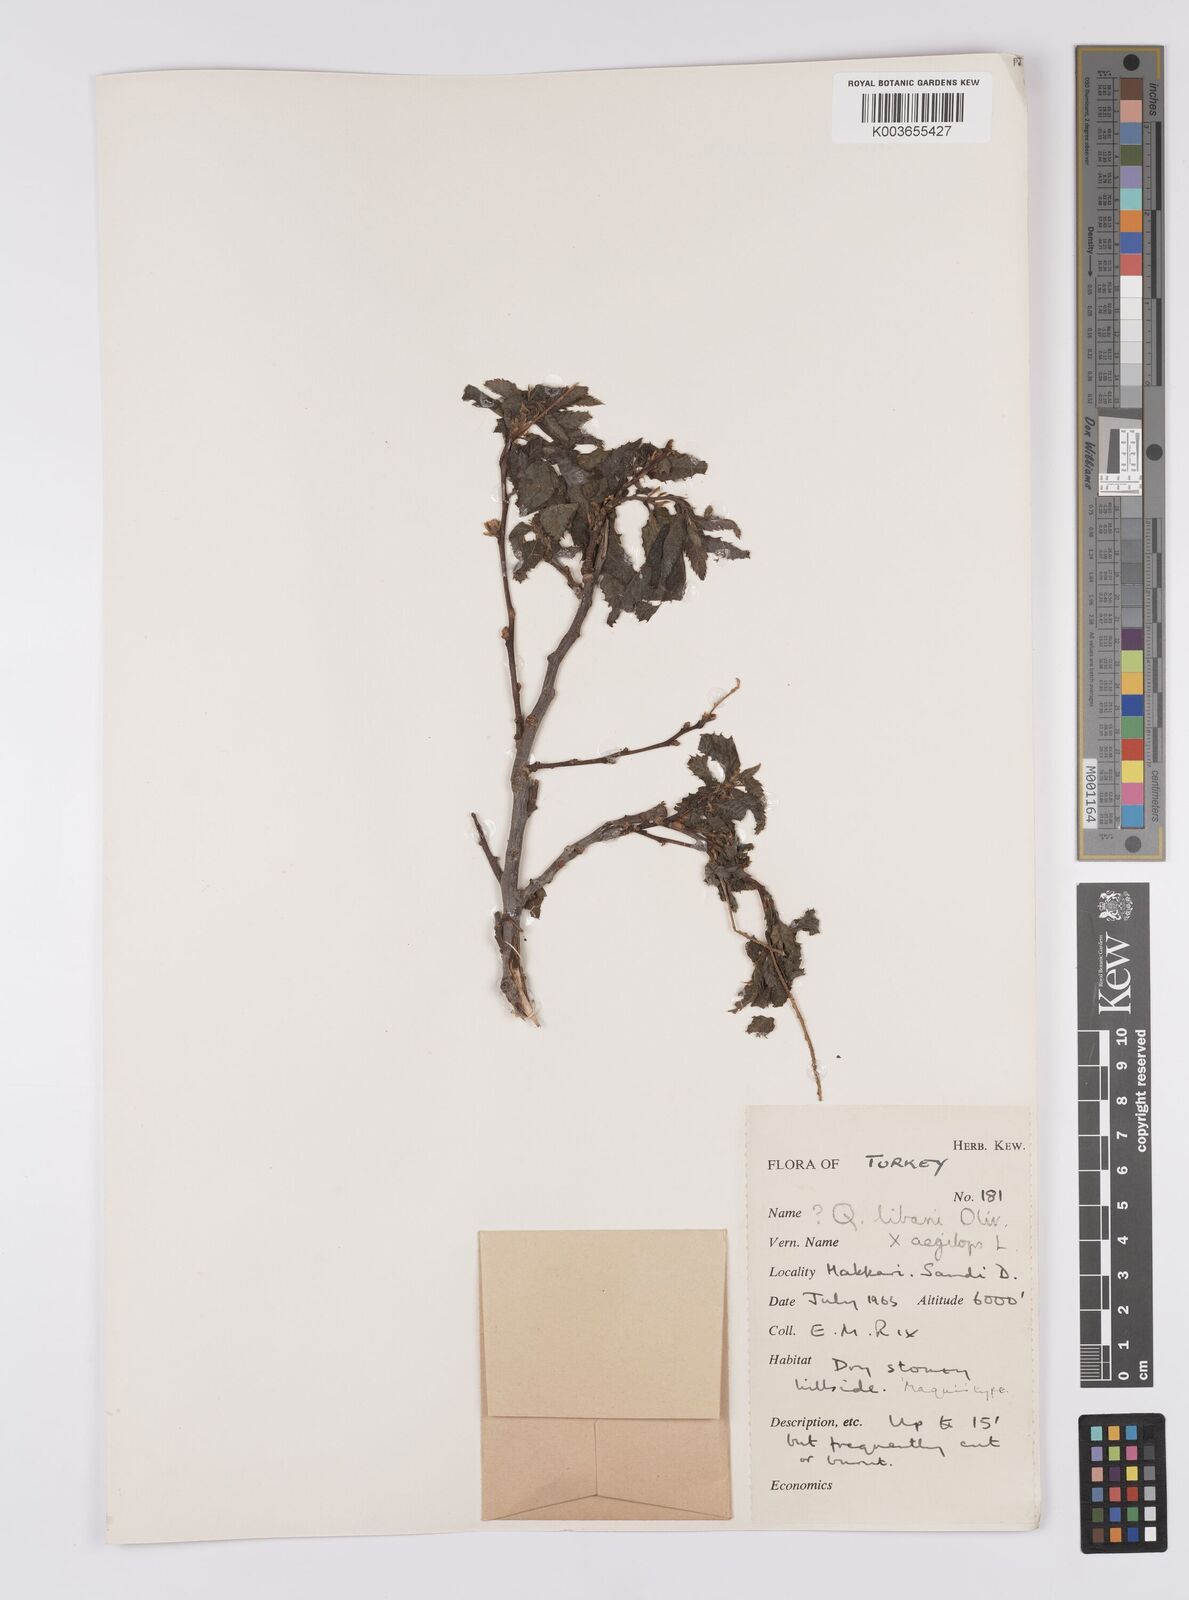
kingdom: Plantae
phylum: Tracheophyta
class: Magnoliopsida
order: Fagales
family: Fagaceae
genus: Quercus
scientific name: Quercus libani
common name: Lebanon oak
